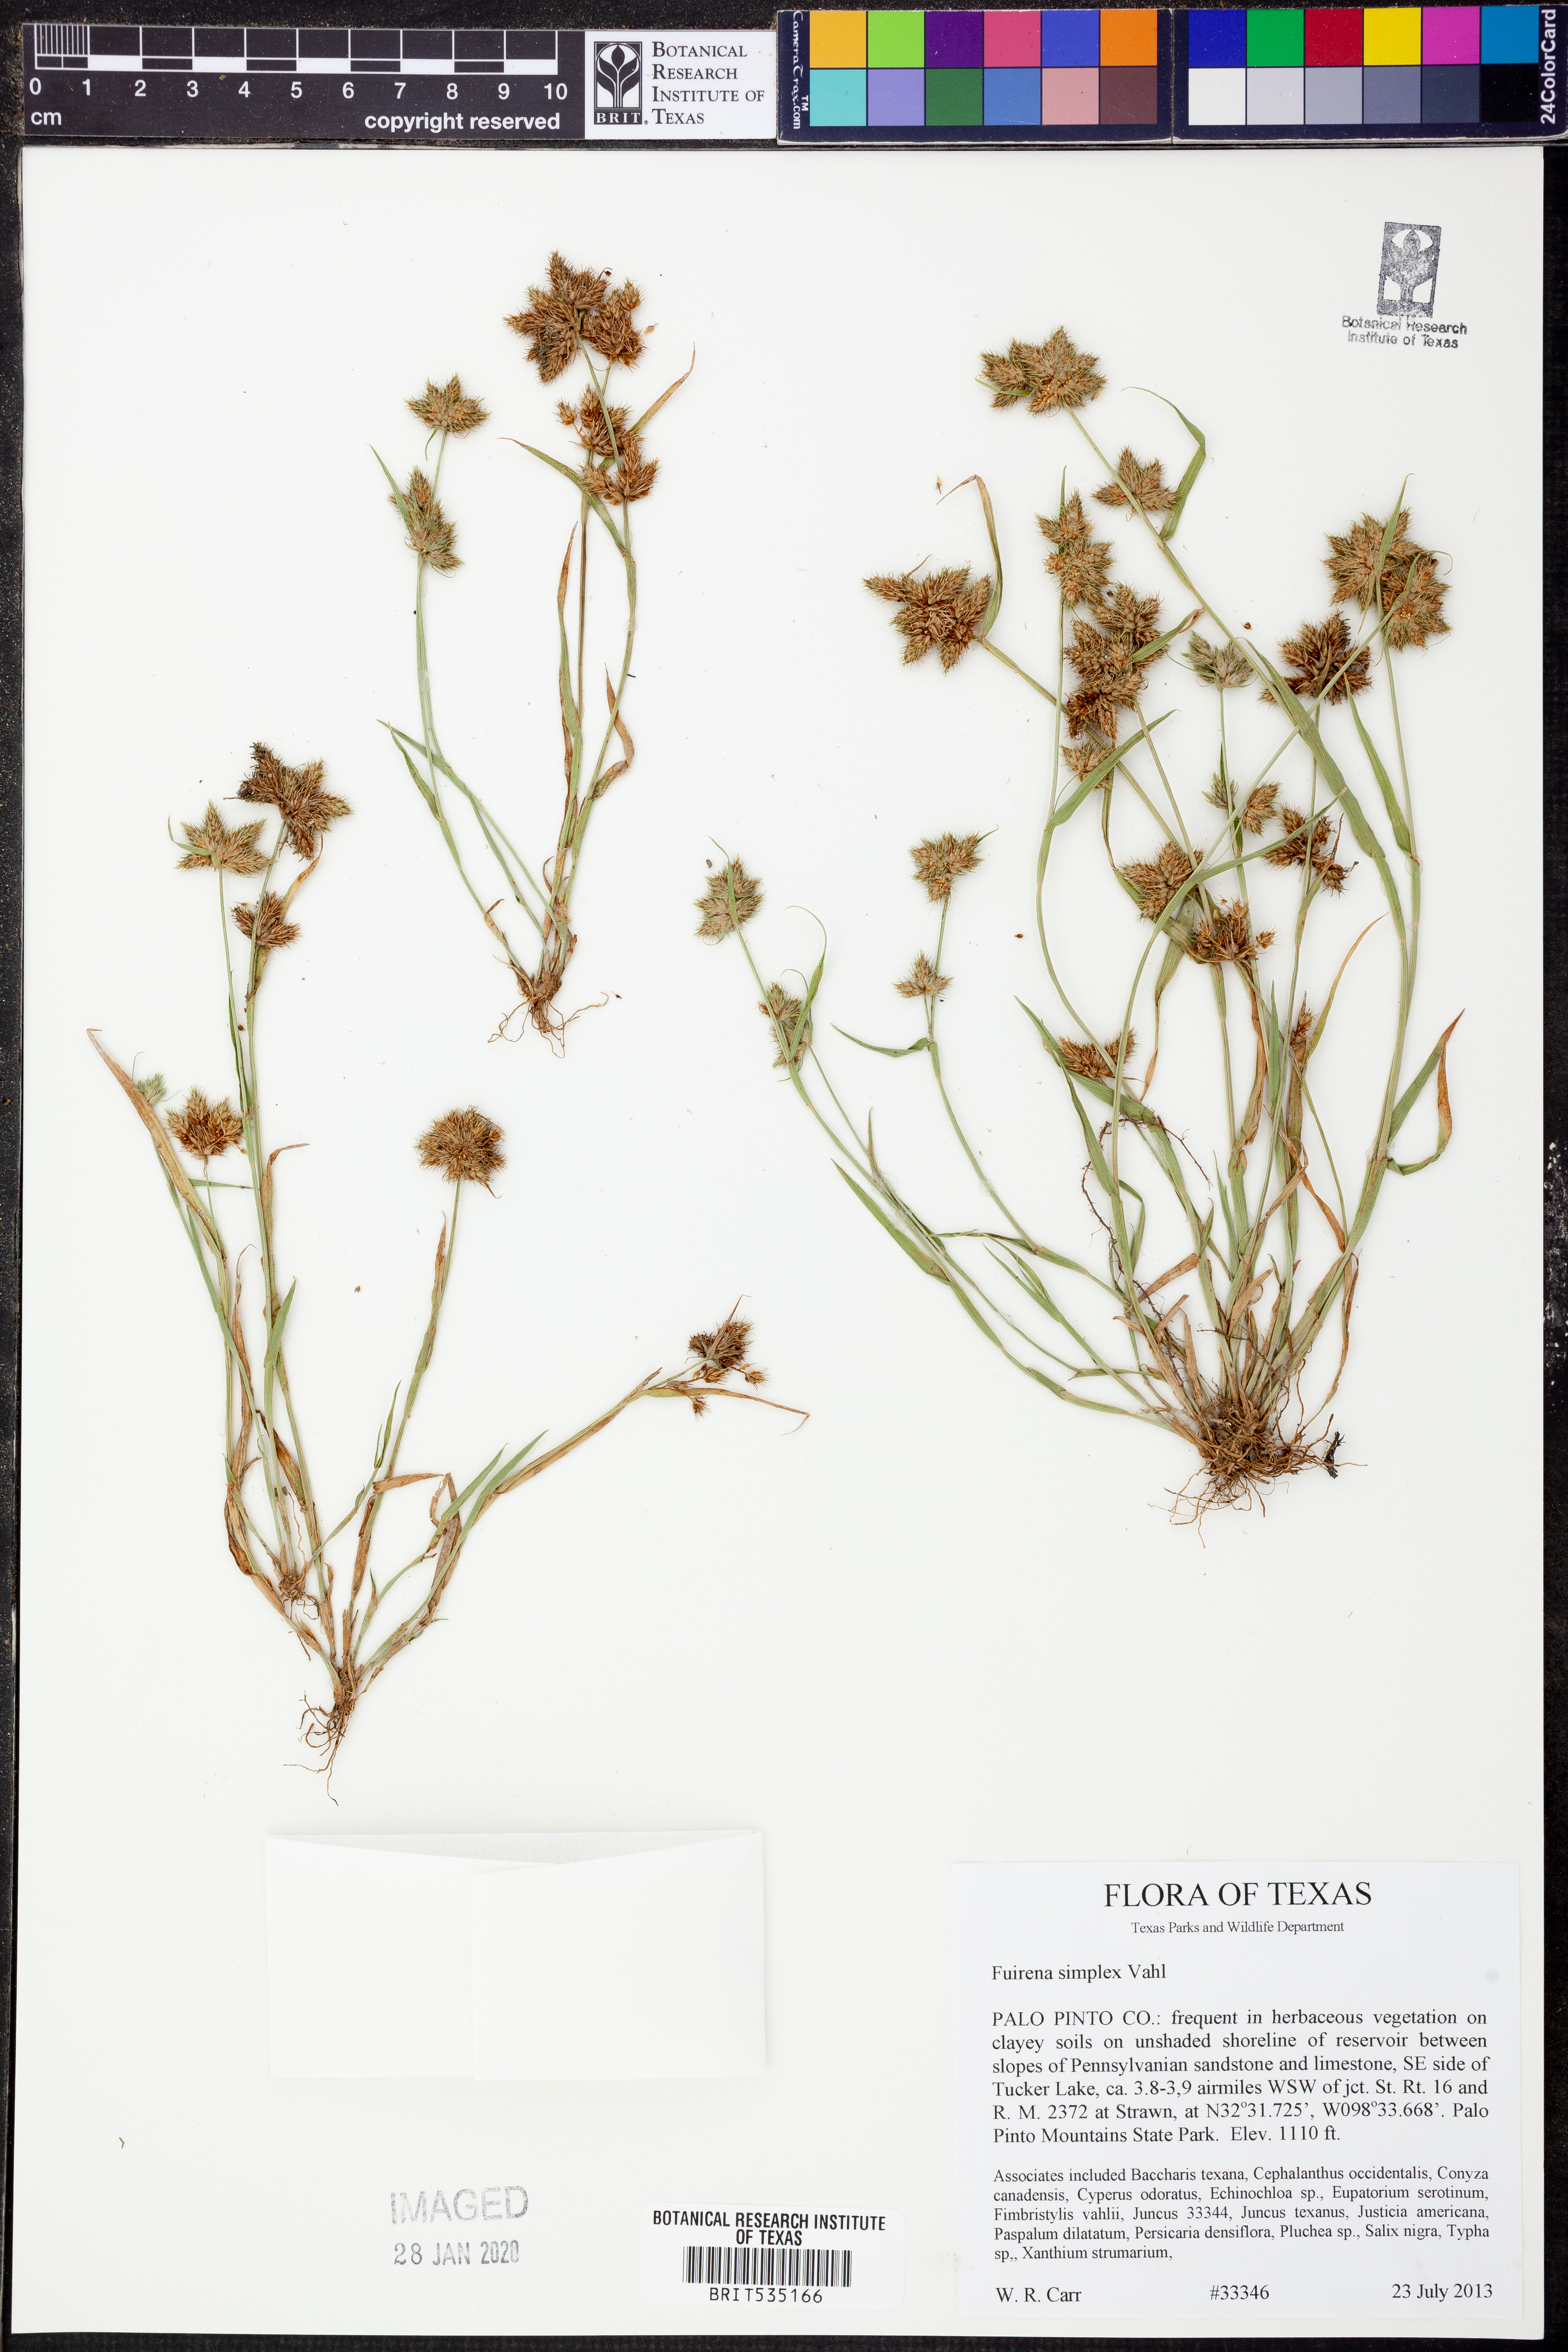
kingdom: Plantae
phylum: Tracheophyta
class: Liliopsida
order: Poales
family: Cyperaceae
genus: Fuirena
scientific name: Fuirena simplex
